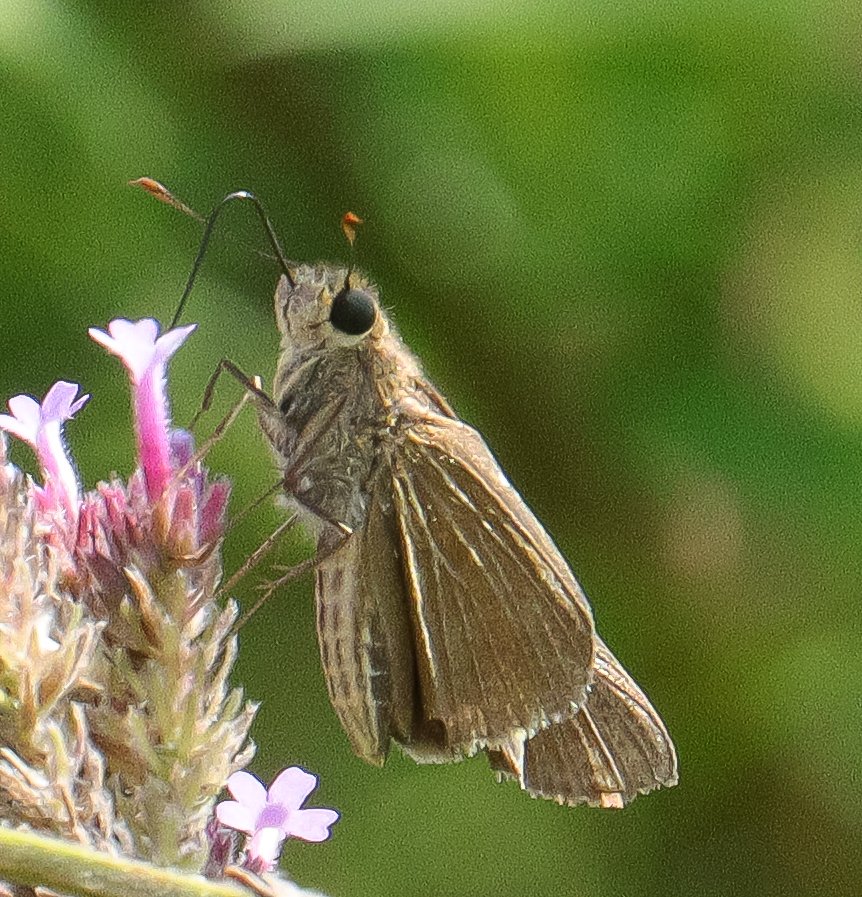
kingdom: Animalia
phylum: Arthropoda
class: Insecta
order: Lepidoptera
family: Hesperiidae
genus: Panoquina
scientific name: Panoquina ocola
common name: Ocola Skipper
